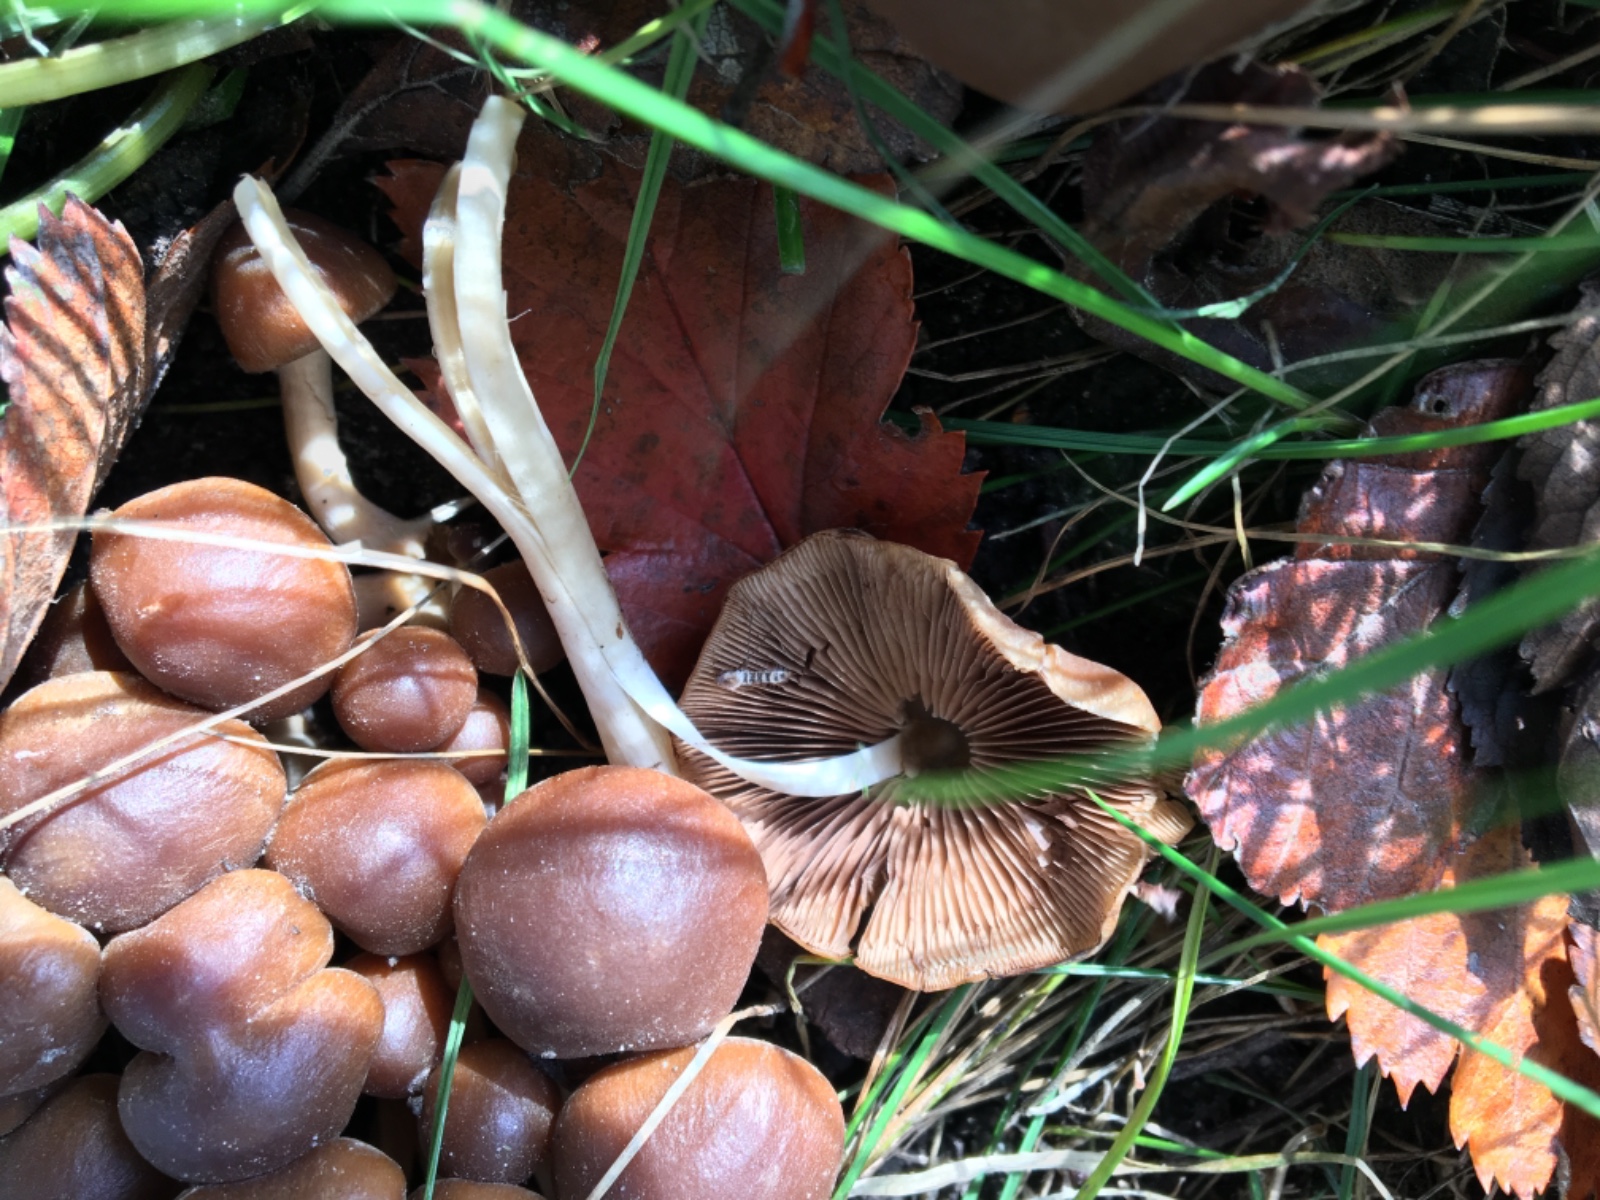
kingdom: Fungi
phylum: Basidiomycota
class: Agaricomycetes
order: Agaricales
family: Psathyrellaceae
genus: Psathyrella
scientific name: Psathyrella piluliformis
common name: lysstokket mørkhat
